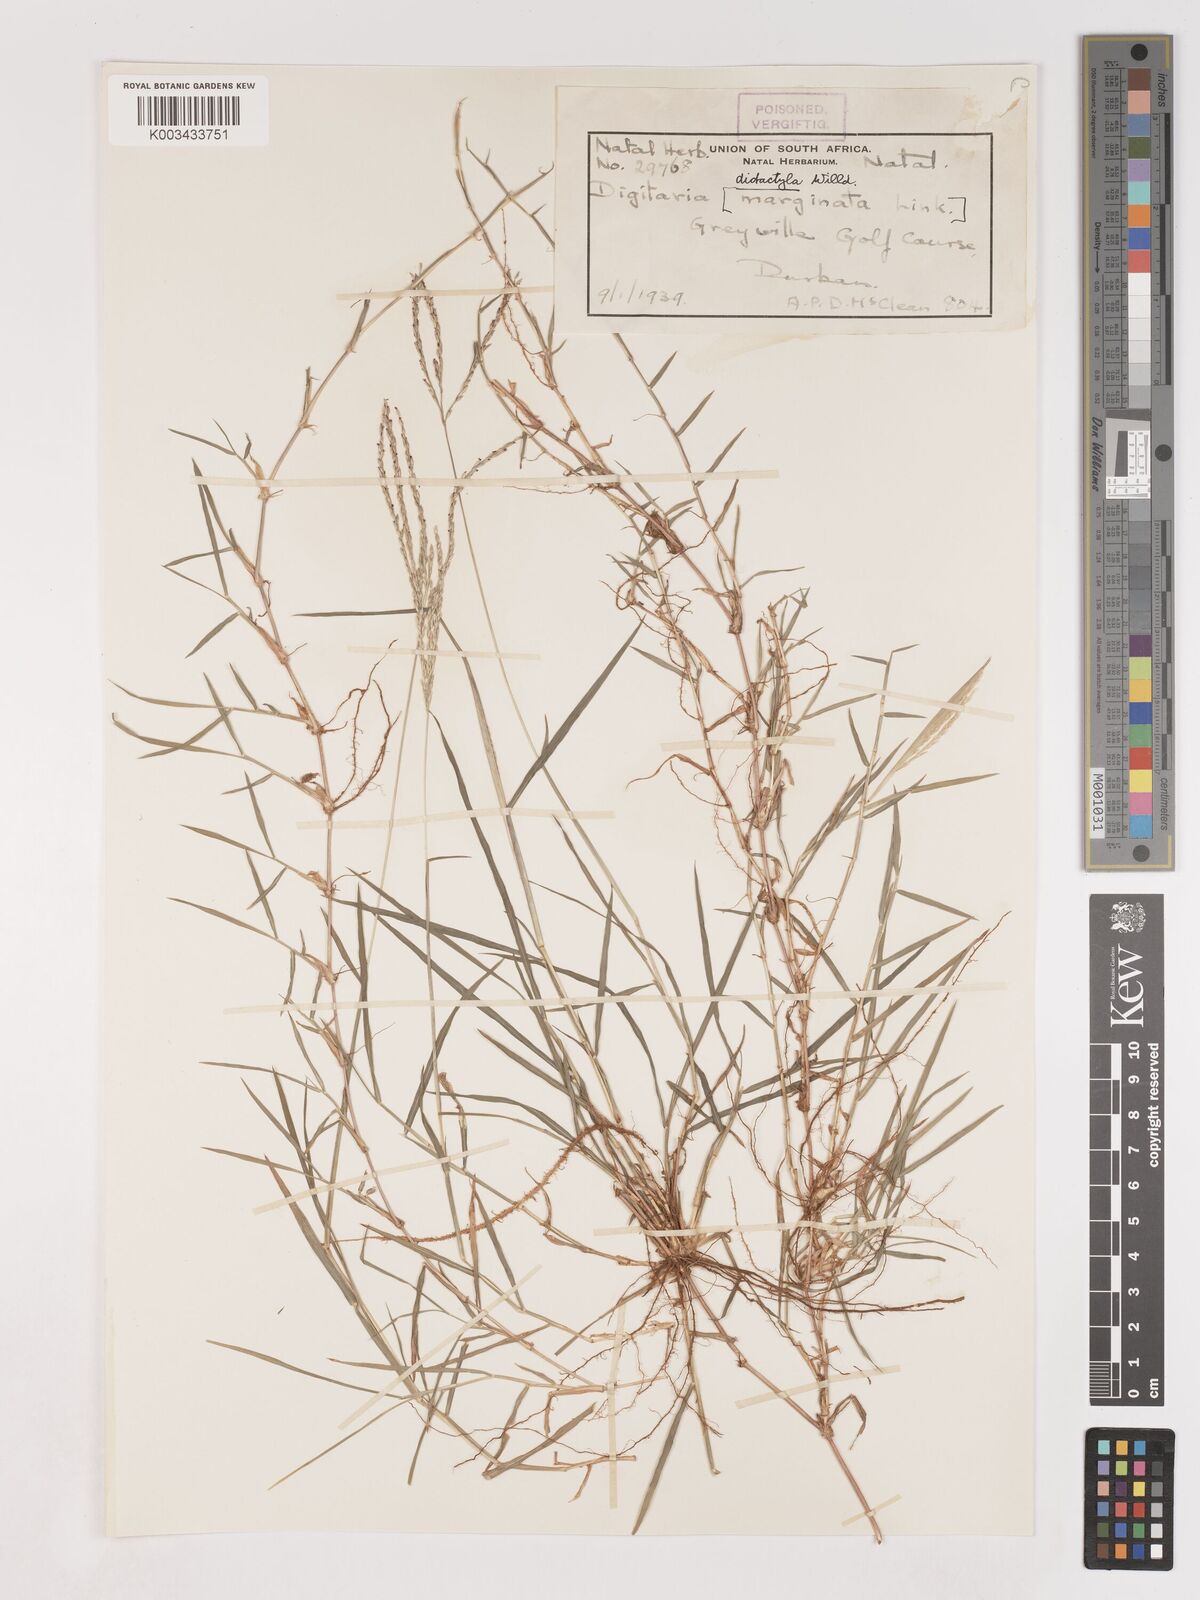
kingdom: Plantae
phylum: Tracheophyta
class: Liliopsida
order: Poales
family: Poaceae
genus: Digitaria
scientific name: Digitaria didactyla
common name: Blue couch
